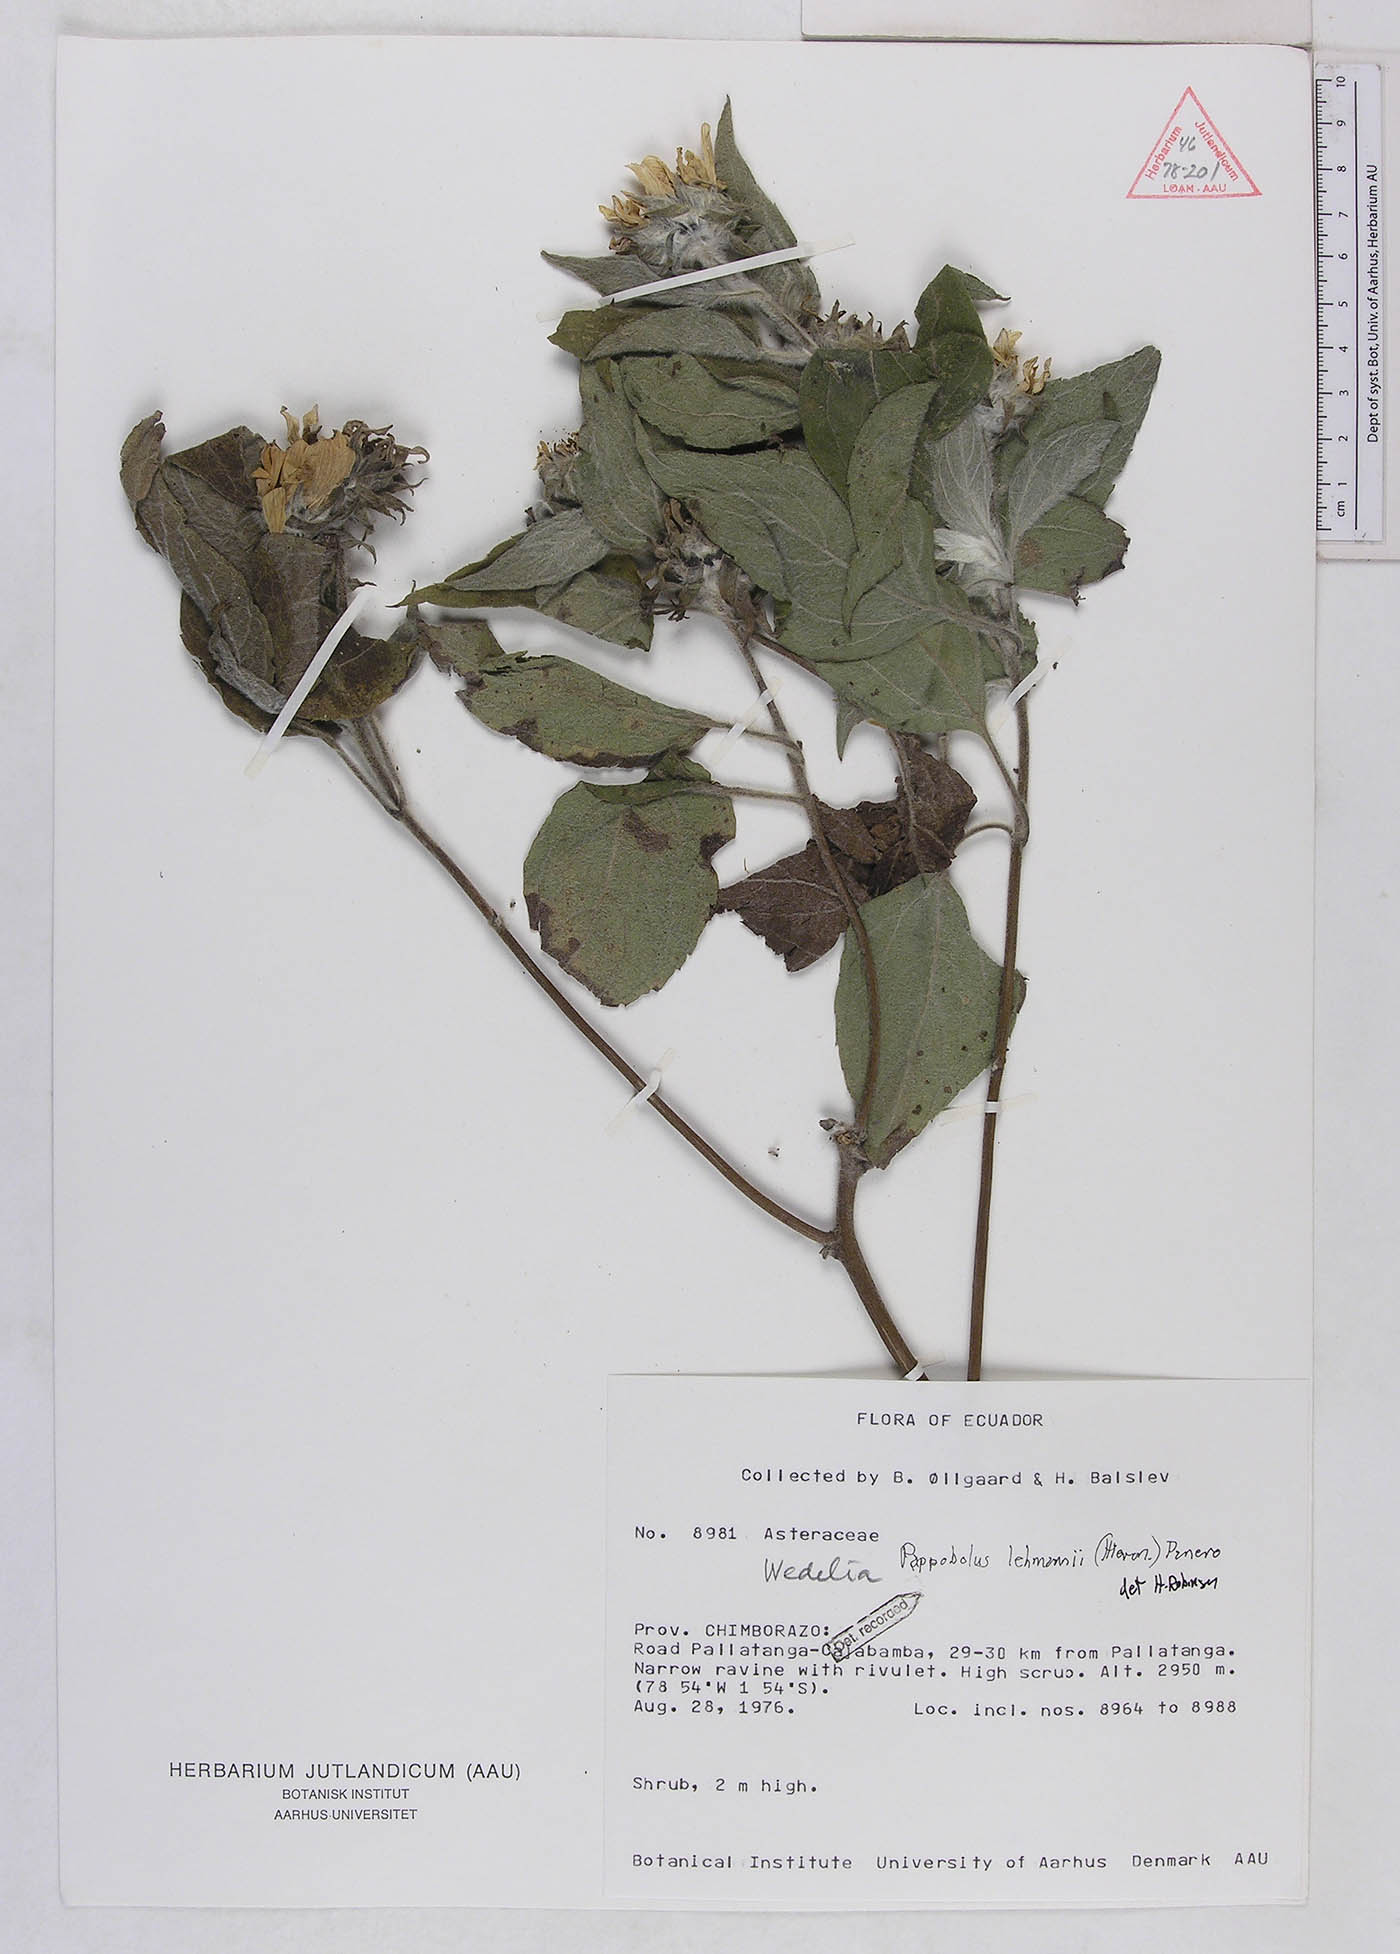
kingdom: Plantae
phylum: Tracheophyta
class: Magnoliopsida
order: Asterales
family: Asteraceae
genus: Pappobolus
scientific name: Pappobolus lehmannii
